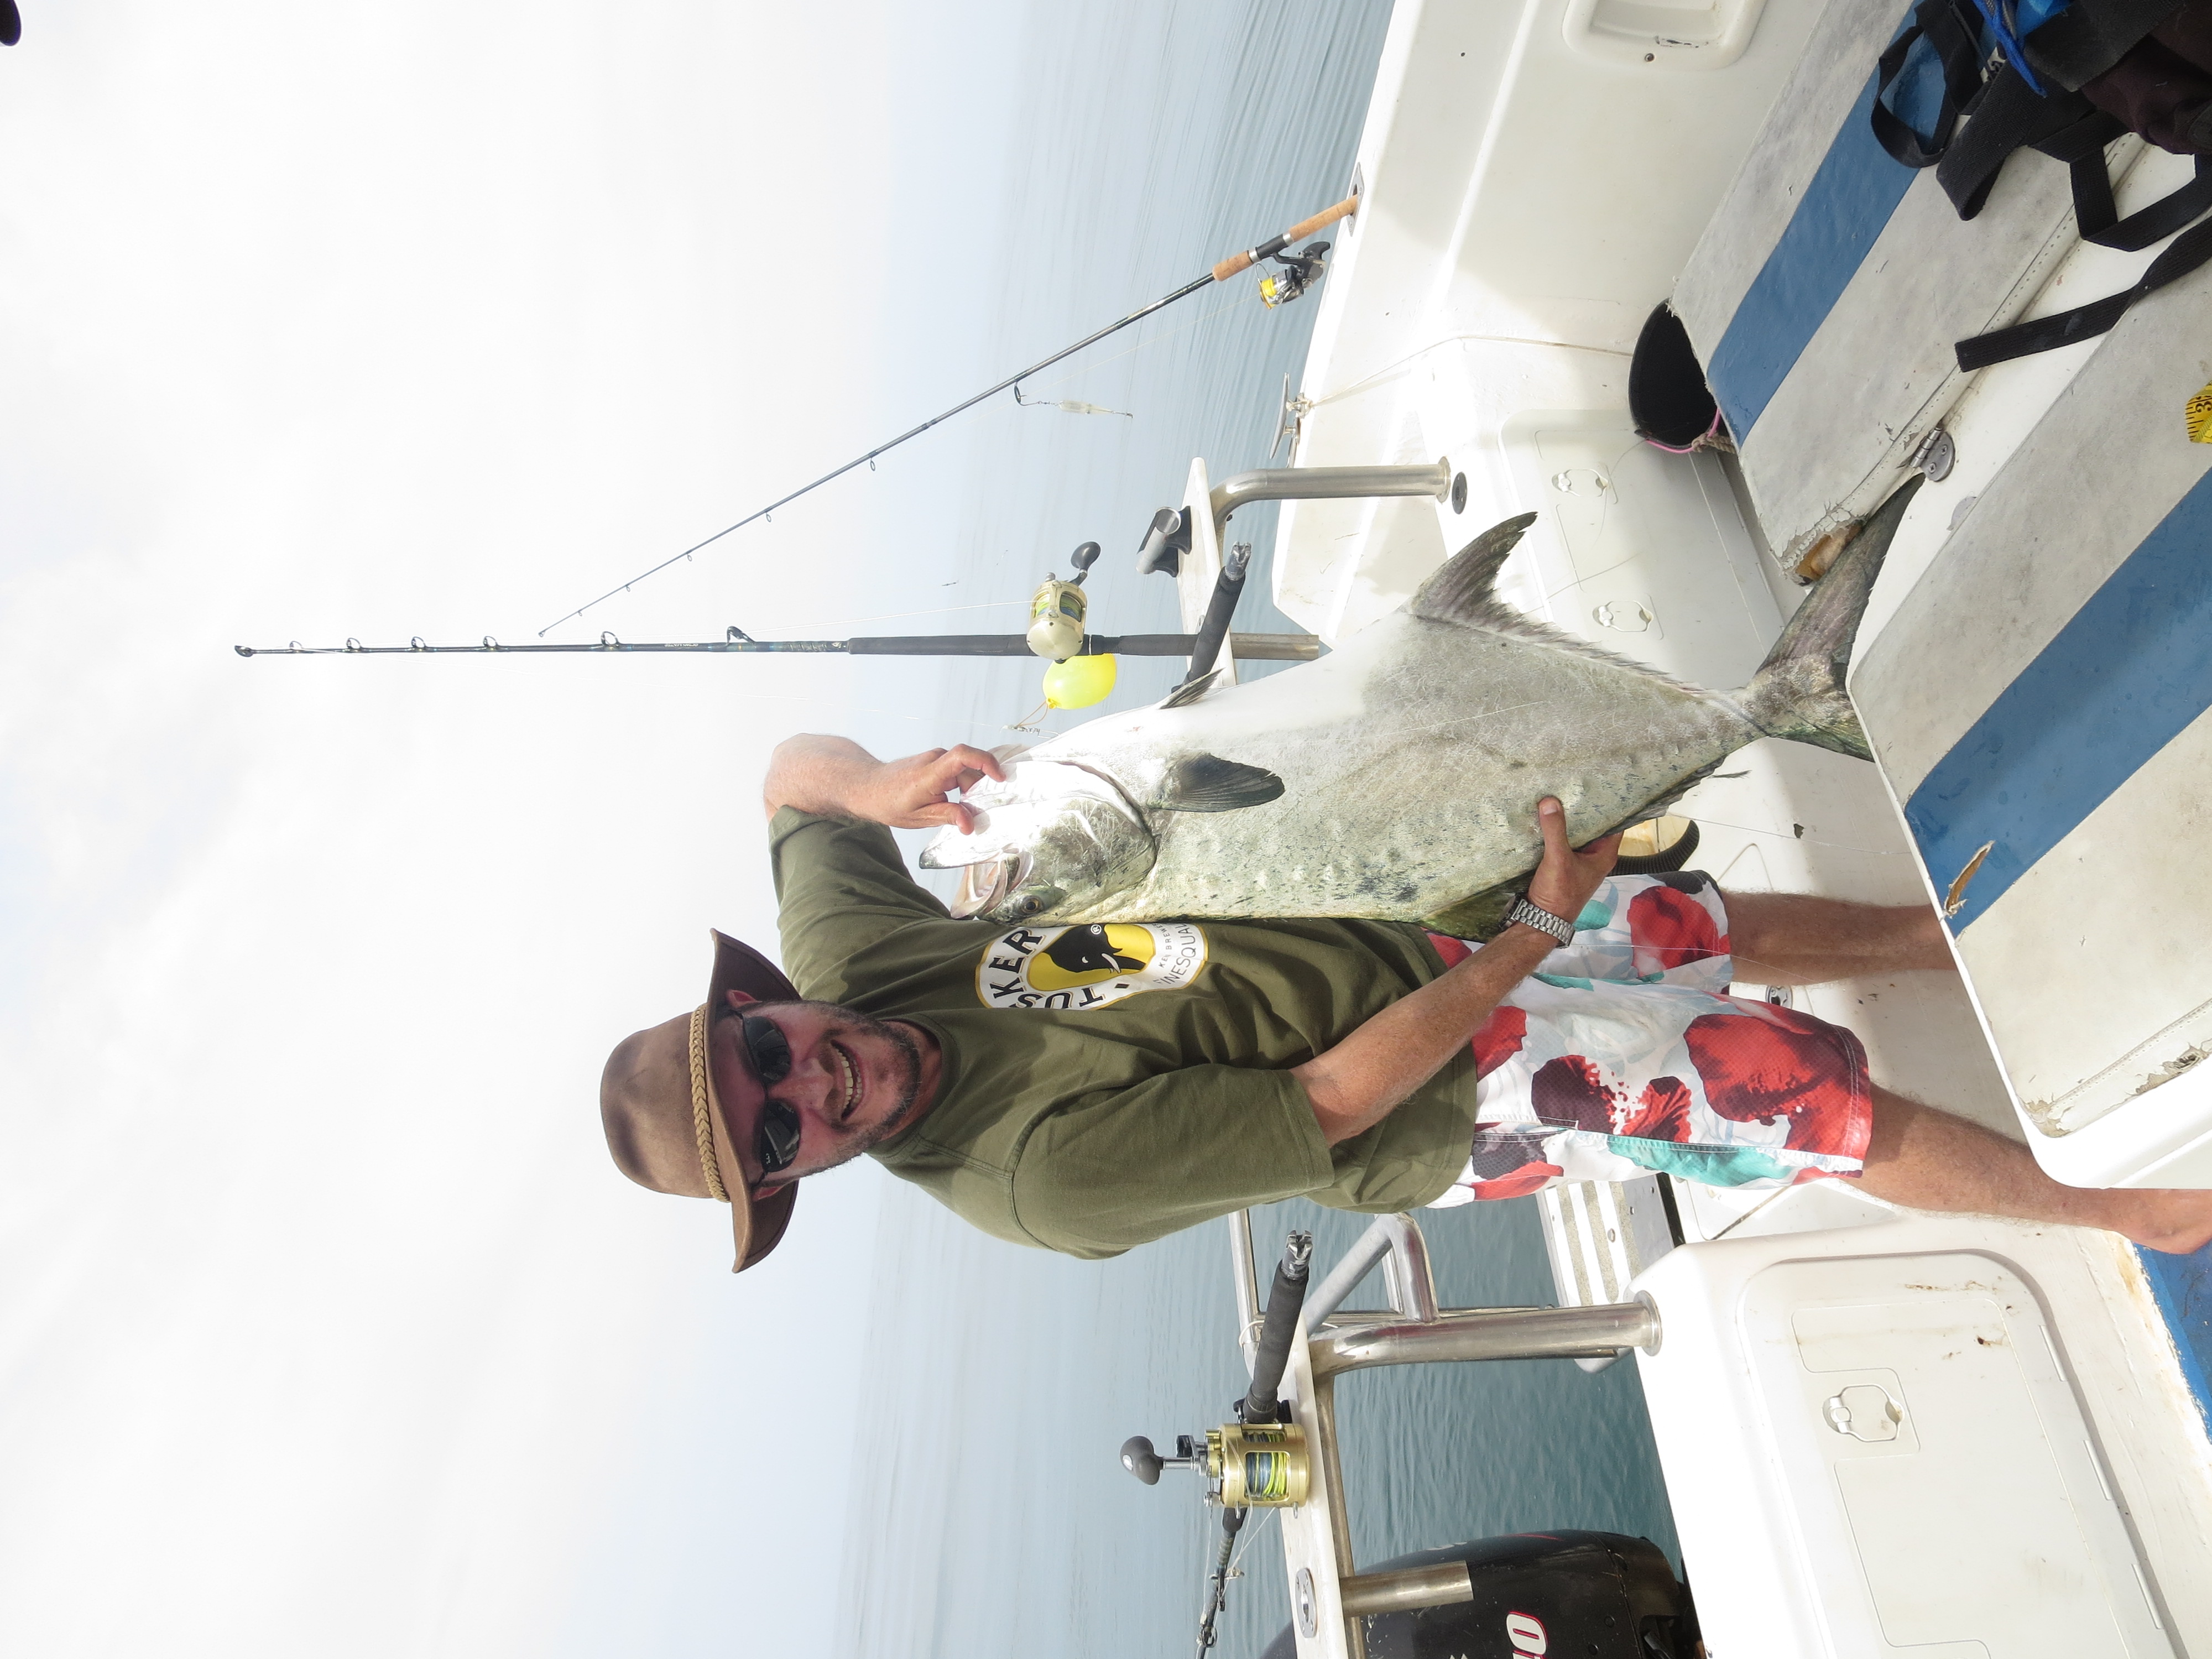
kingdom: Animalia
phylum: Chordata
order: Perciformes
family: Carangidae
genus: Lichia
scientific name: Lichia amia
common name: Leerfish
